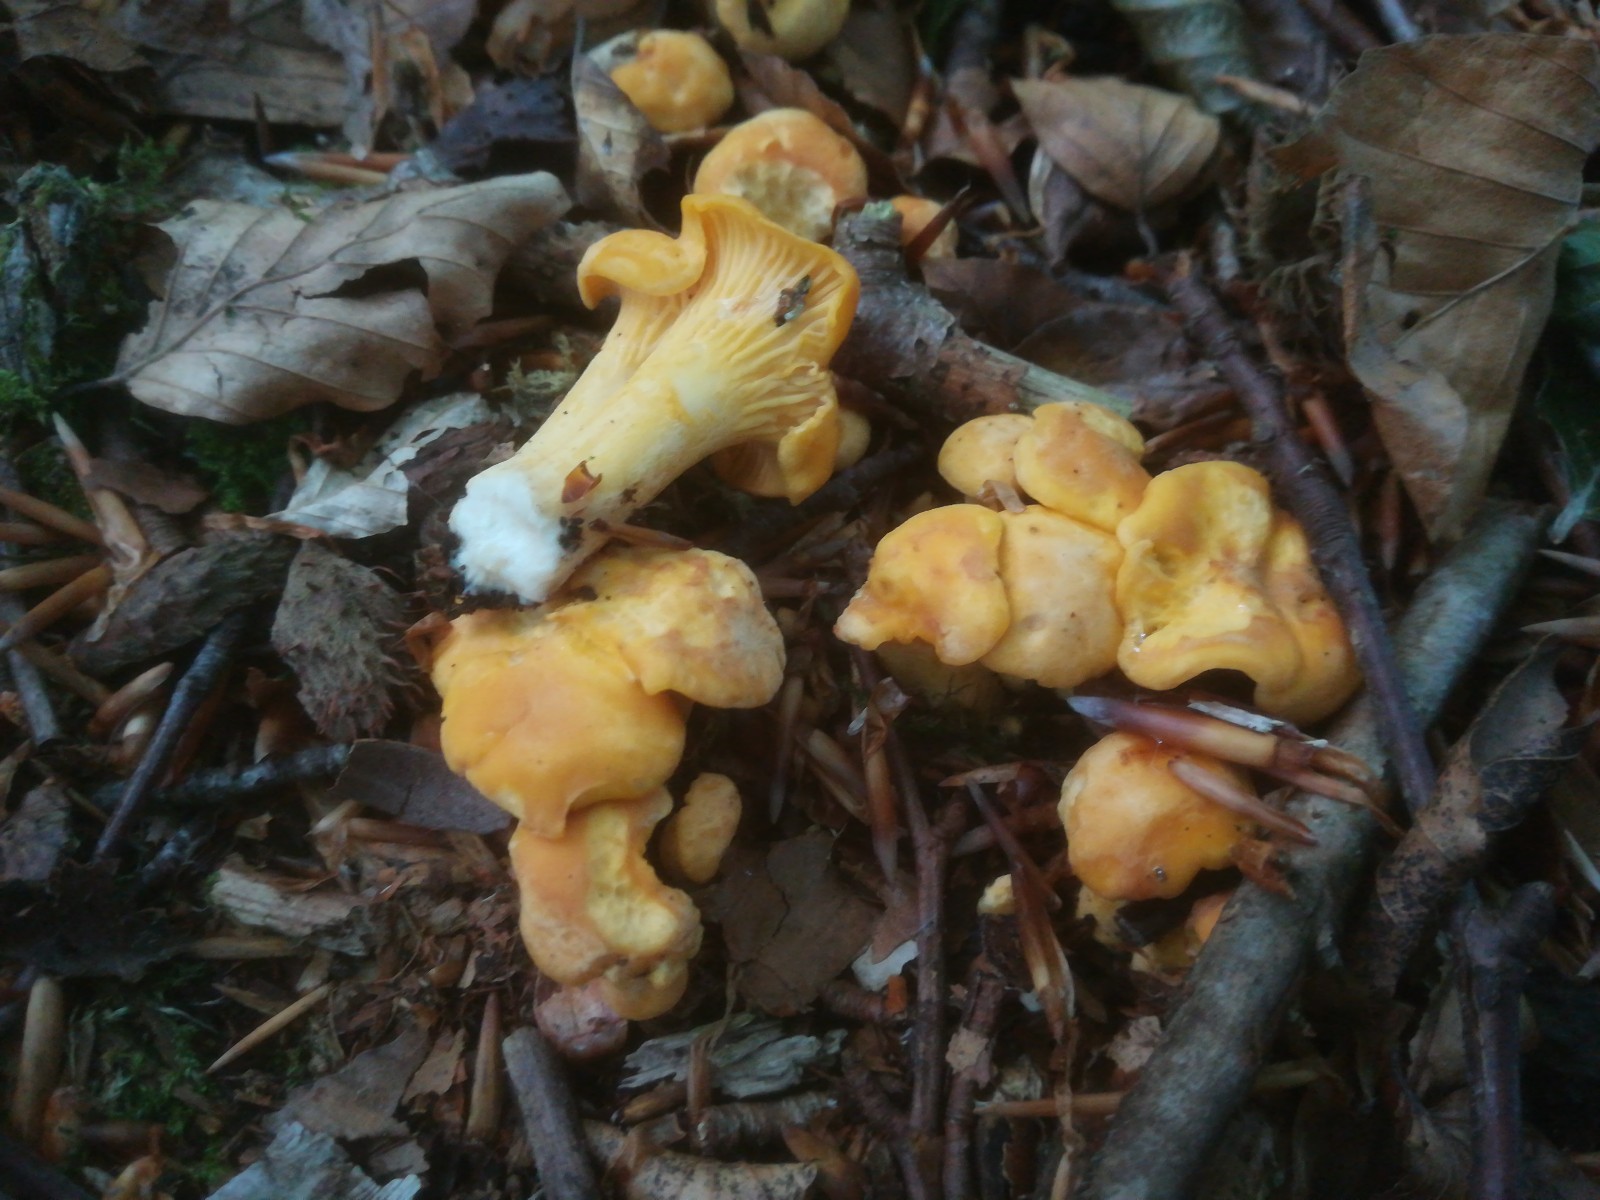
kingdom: Fungi
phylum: Basidiomycota
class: Agaricomycetes
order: Cantharellales
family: Hydnaceae
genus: Cantharellus
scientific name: Cantharellus cibarius
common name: almindelig kantarel
